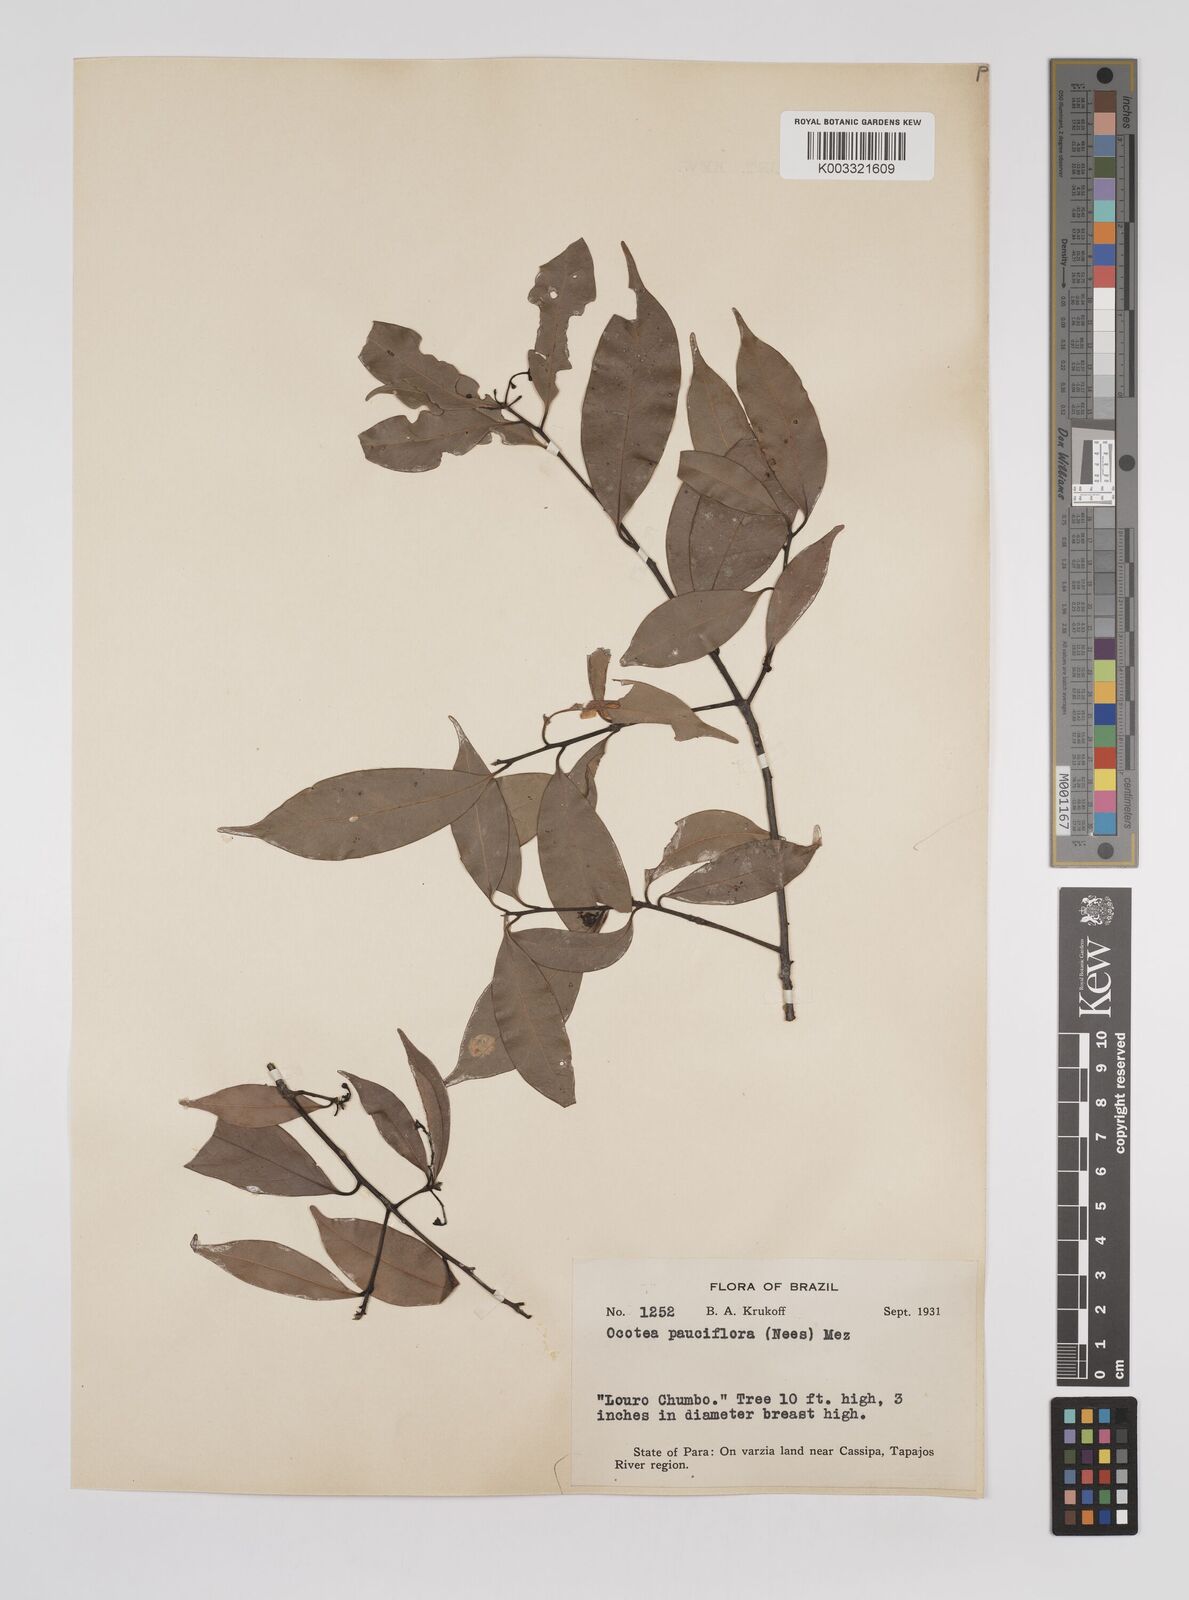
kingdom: Plantae
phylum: Tracheophyta
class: Magnoliopsida
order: Laurales
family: Lauraceae
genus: Ocotea
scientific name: Ocotea pauciflora
